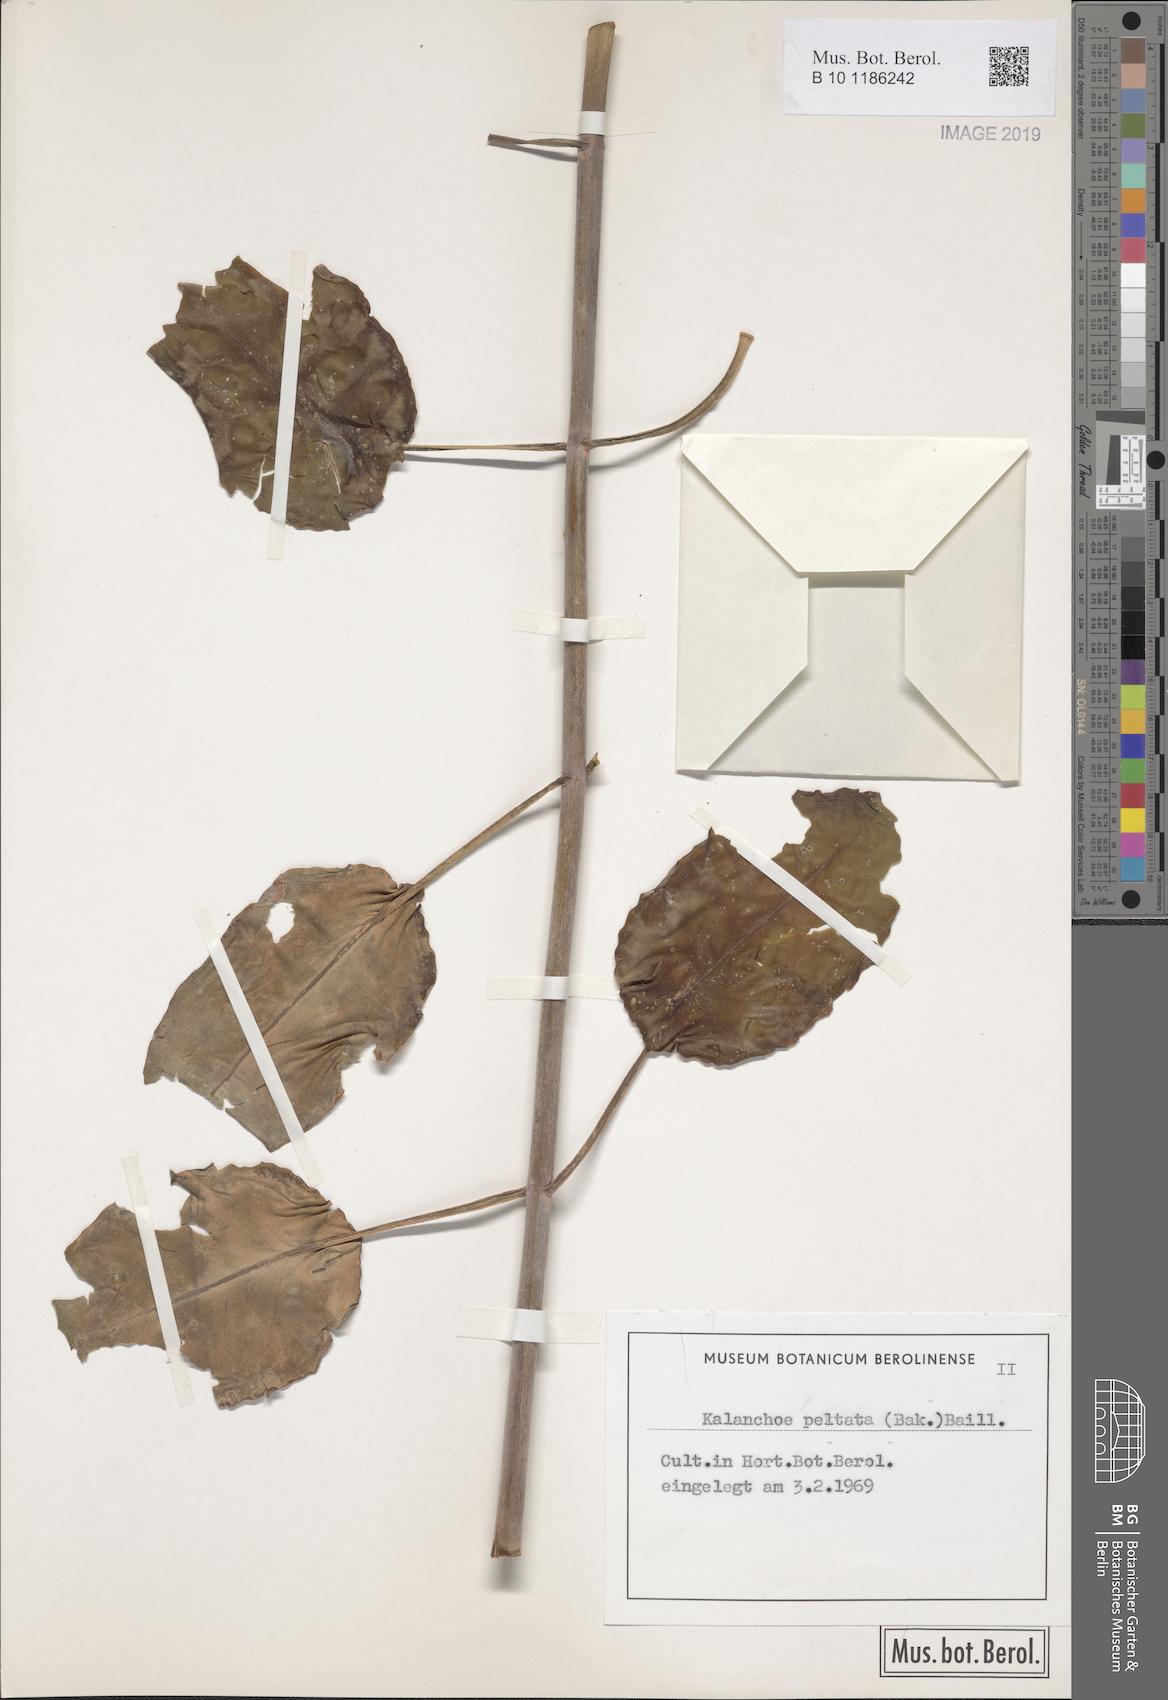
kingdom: Plantae
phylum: Tracheophyta
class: Magnoliopsida
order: Saxifragales
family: Crassulaceae
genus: Kalanchoe
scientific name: Kalanchoe peltata
